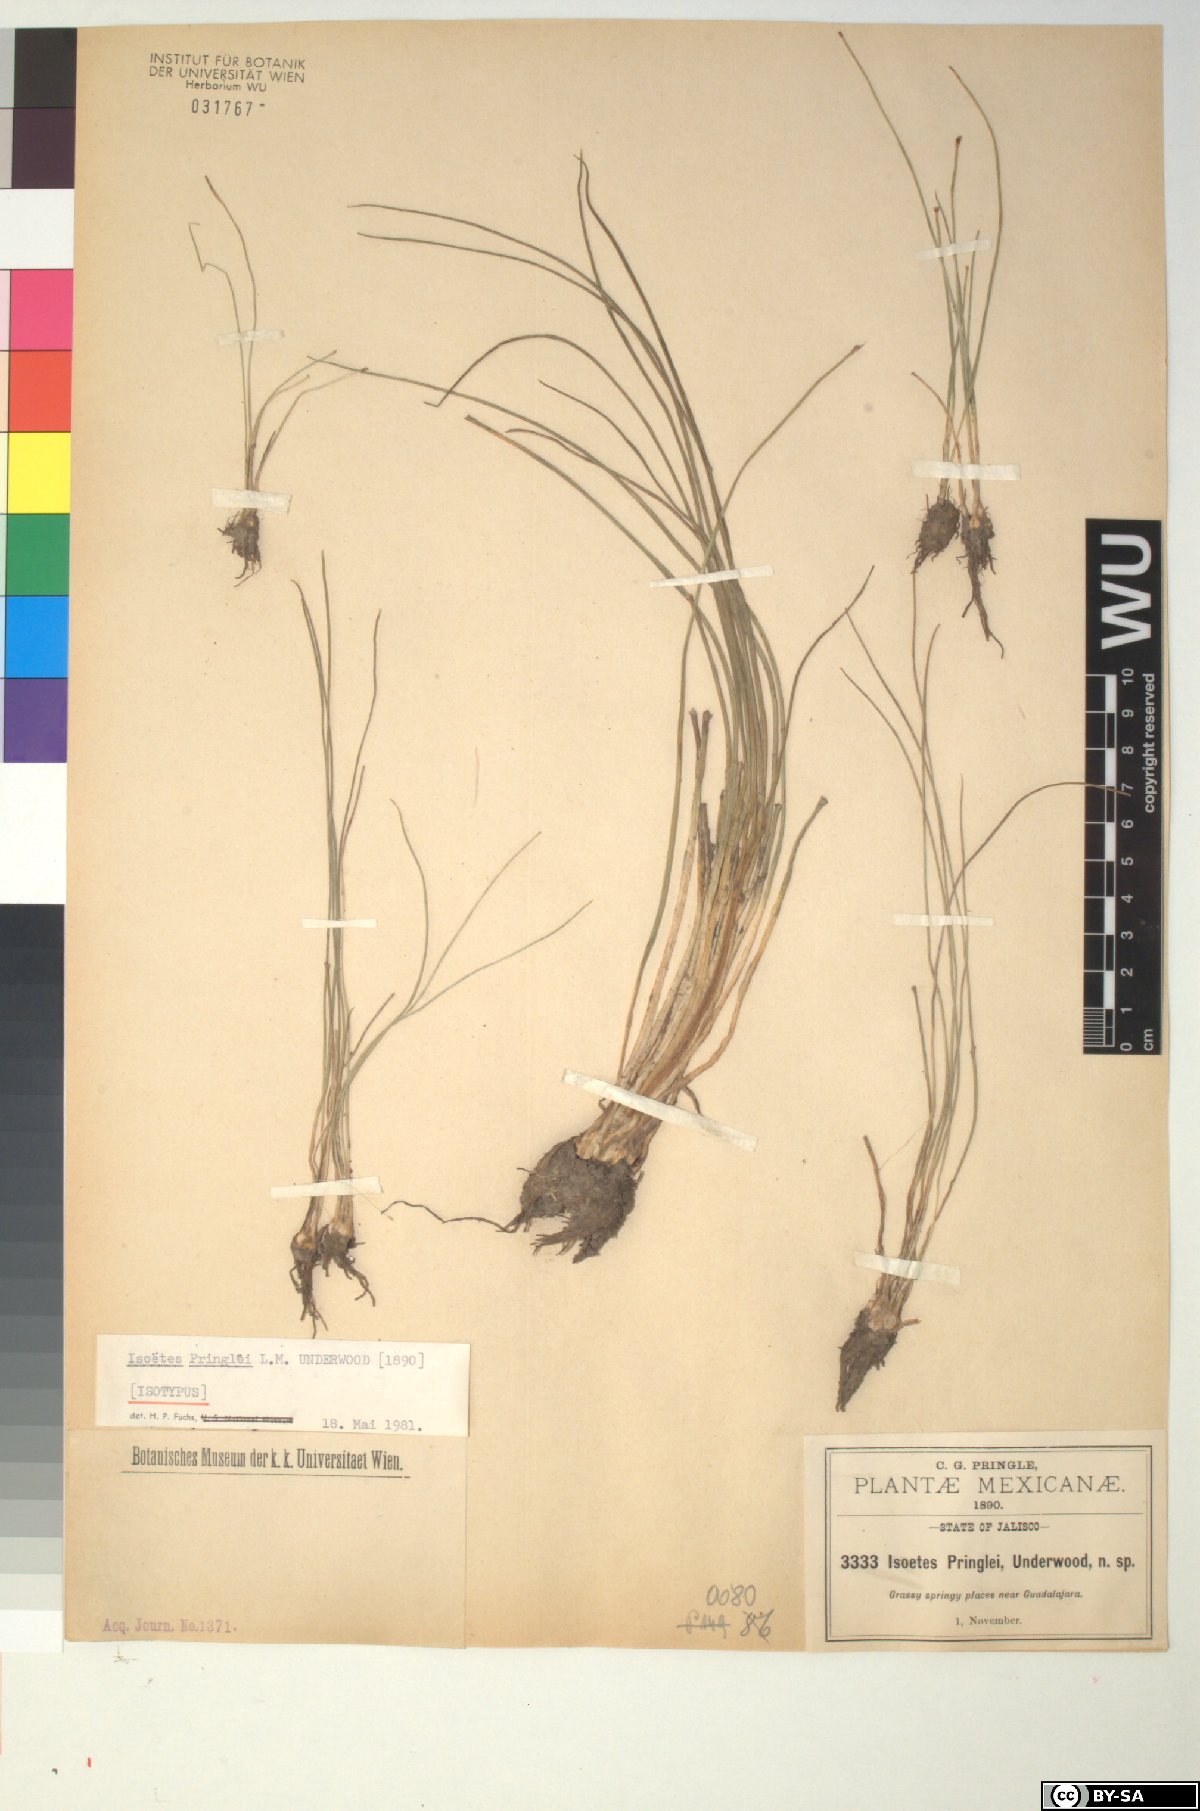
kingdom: Plantae
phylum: Tracheophyta
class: Lycopodiopsida
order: Isoetales
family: Isoetaceae
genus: Isoetes
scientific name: Isoetes pringlei
